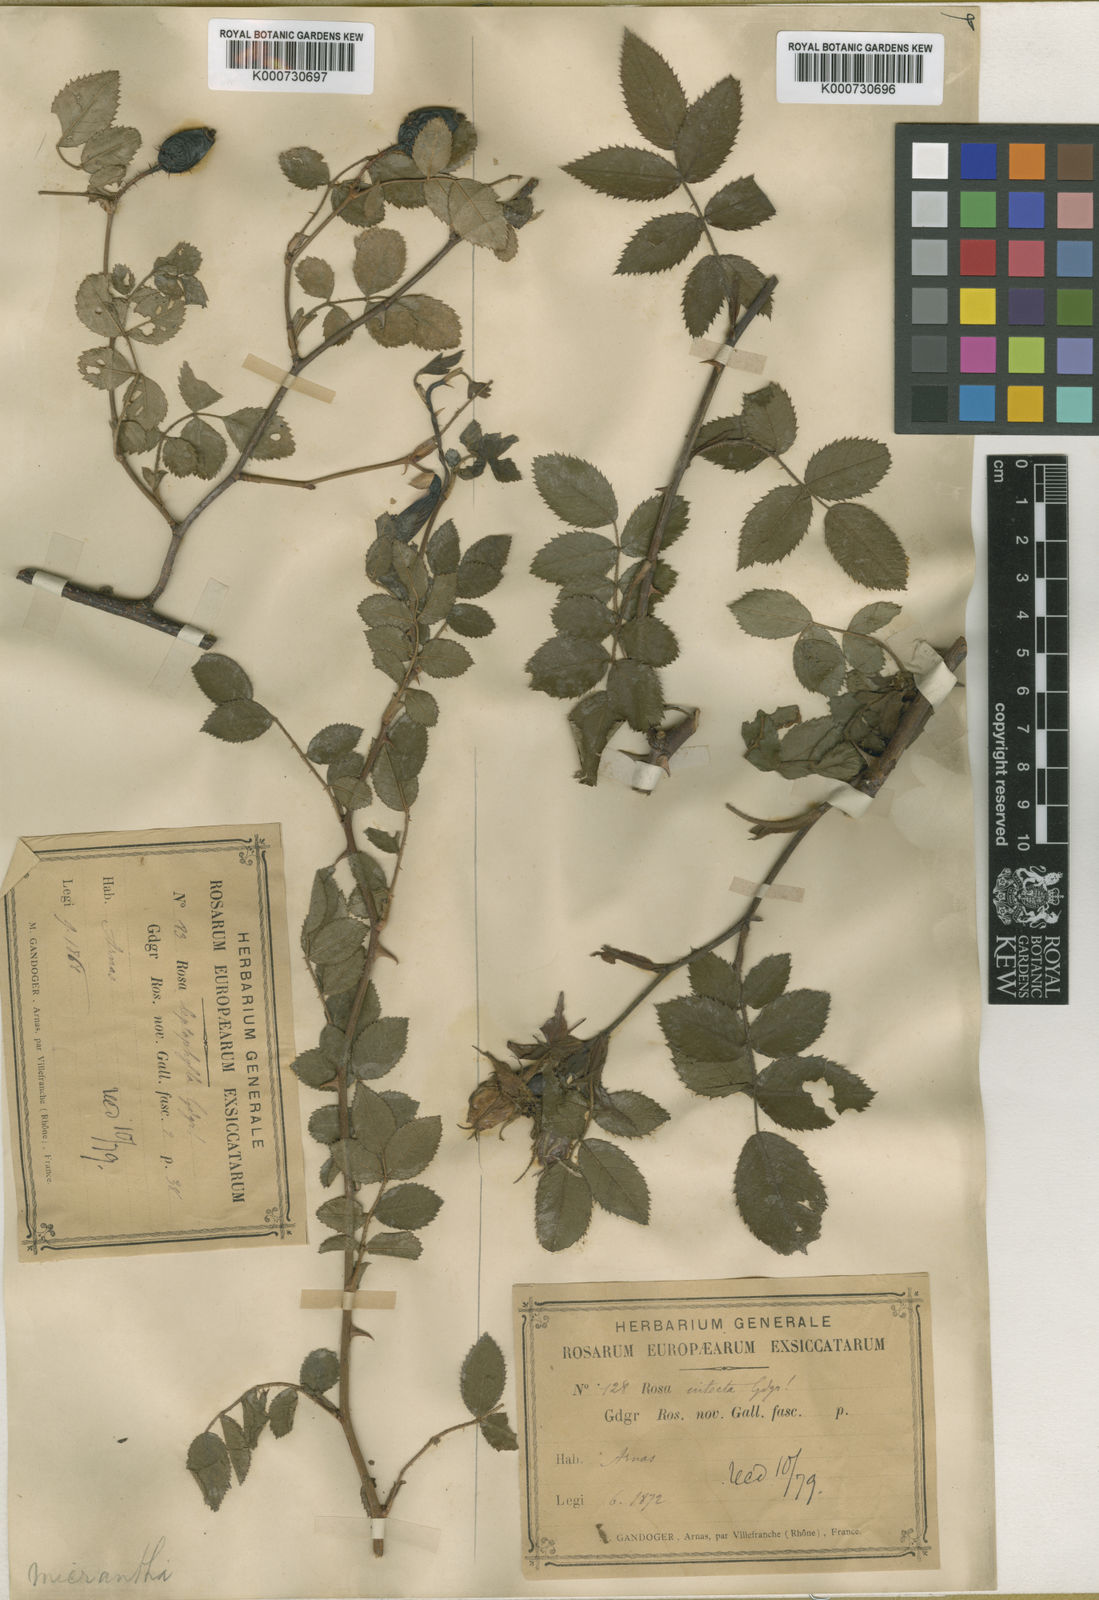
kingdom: Plantae
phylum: Tracheophyta
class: Magnoliopsida
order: Rosales
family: Rosaceae
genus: Rosa
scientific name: Rosa
